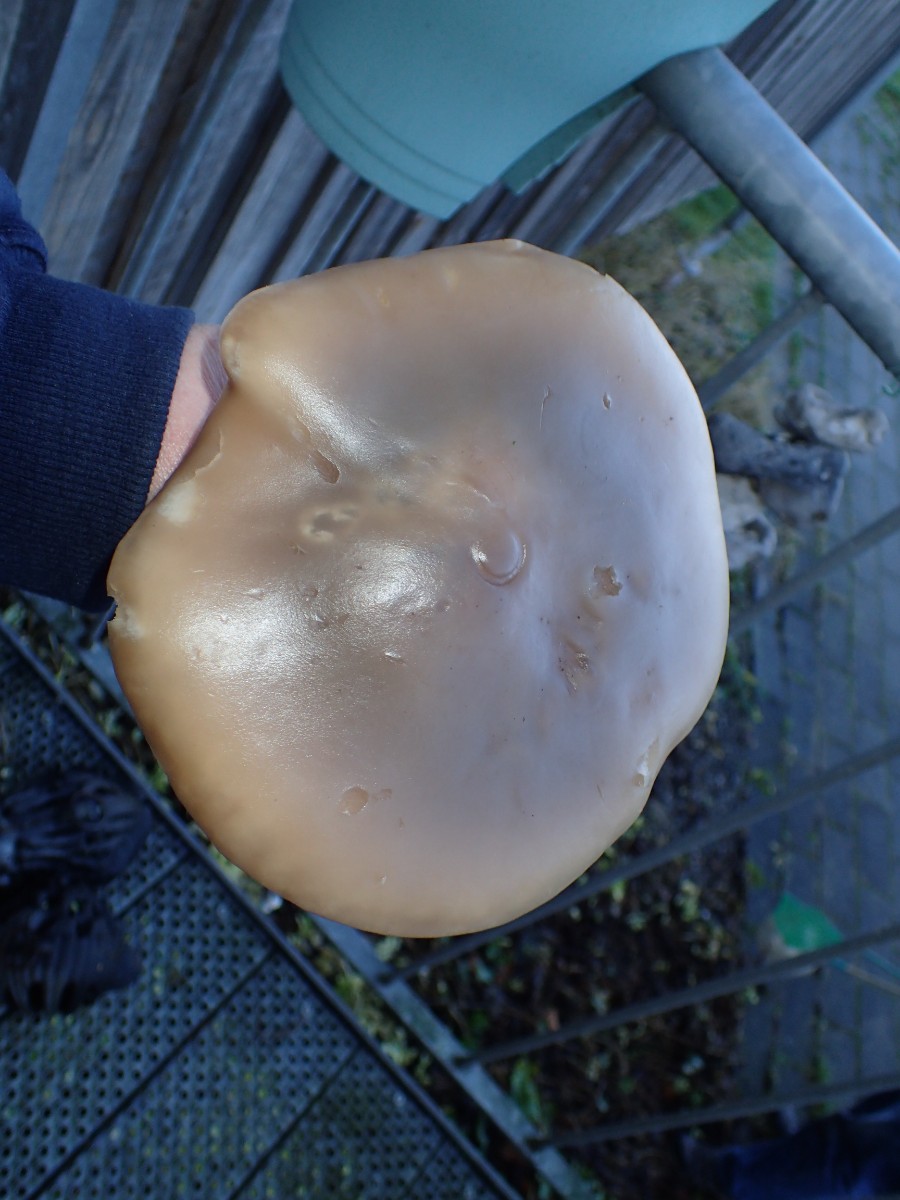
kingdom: Fungi
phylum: Basidiomycota
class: Agaricomycetes
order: Agaricales
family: Tricholomataceae
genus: Lepista
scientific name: Lepista
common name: hekseringshat
